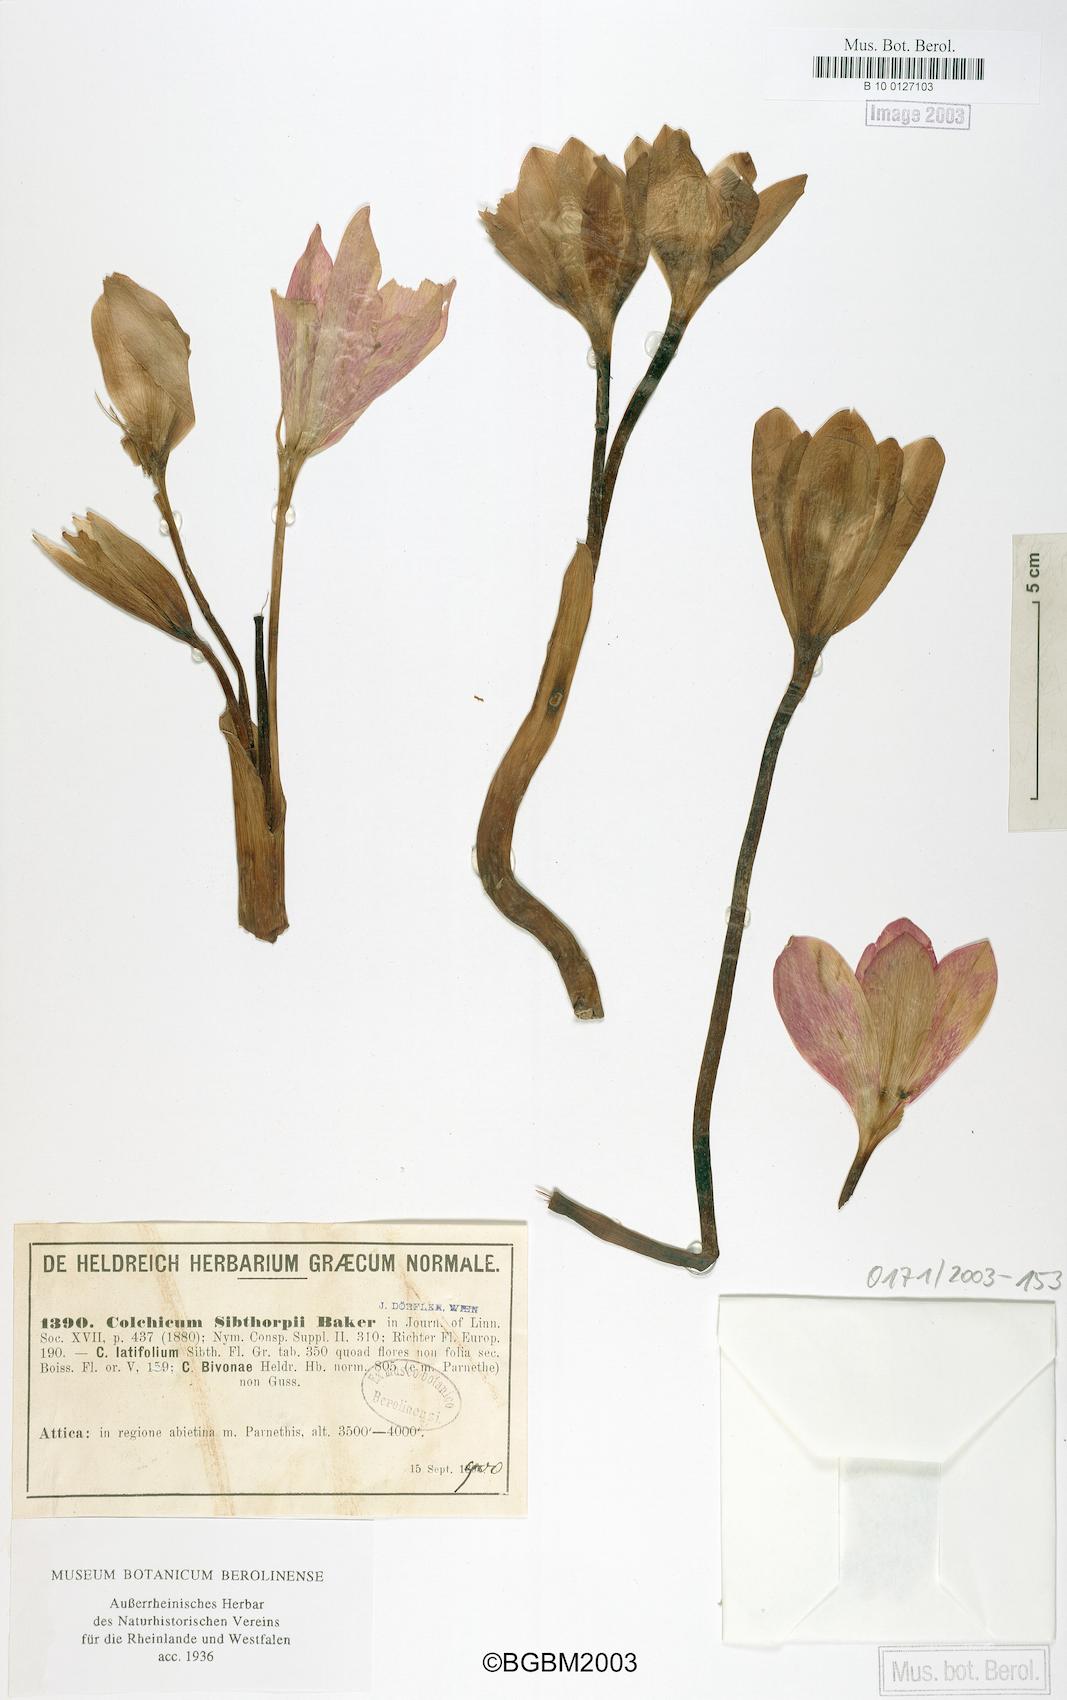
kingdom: Plantae
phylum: Tracheophyta
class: Liliopsida
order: Liliales
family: Colchicaceae
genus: Colchicum
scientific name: Colchicum bivonae
